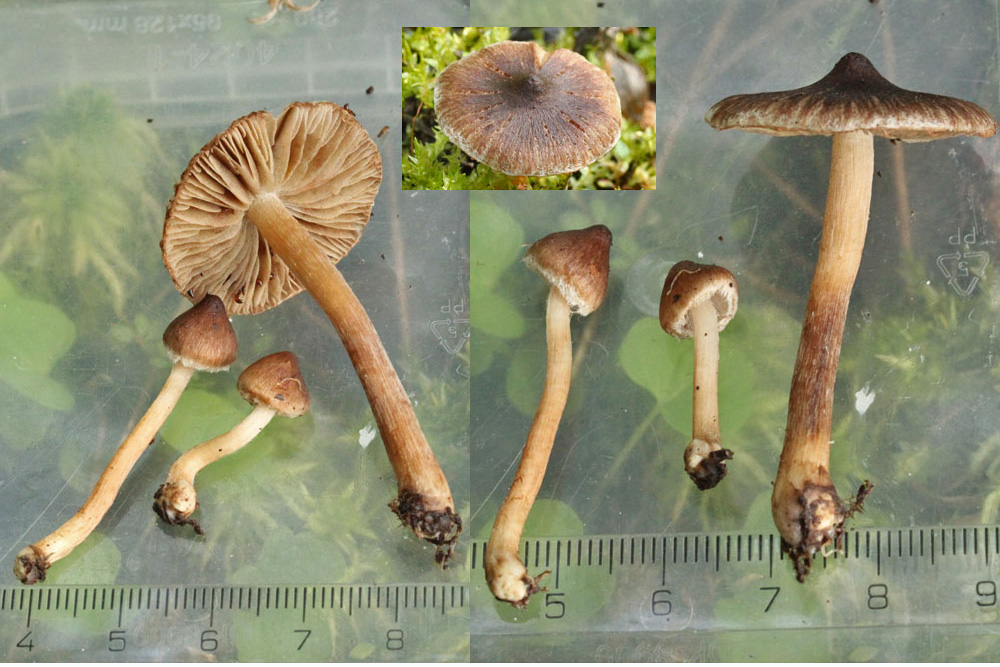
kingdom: Fungi
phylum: Basidiomycota
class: Agaricomycetes
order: Agaricales
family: Inocybaceae
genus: Inocybe
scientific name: Inocybe acuta
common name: papil-trævlhat
